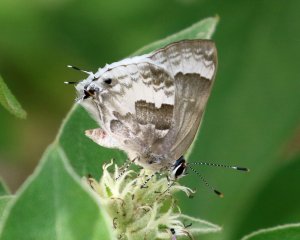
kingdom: Animalia
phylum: Arthropoda
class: Insecta
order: Lepidoptera
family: Lycaenidae
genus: Strymon
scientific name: Strymon albata
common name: White Scrub-Hairstreak
